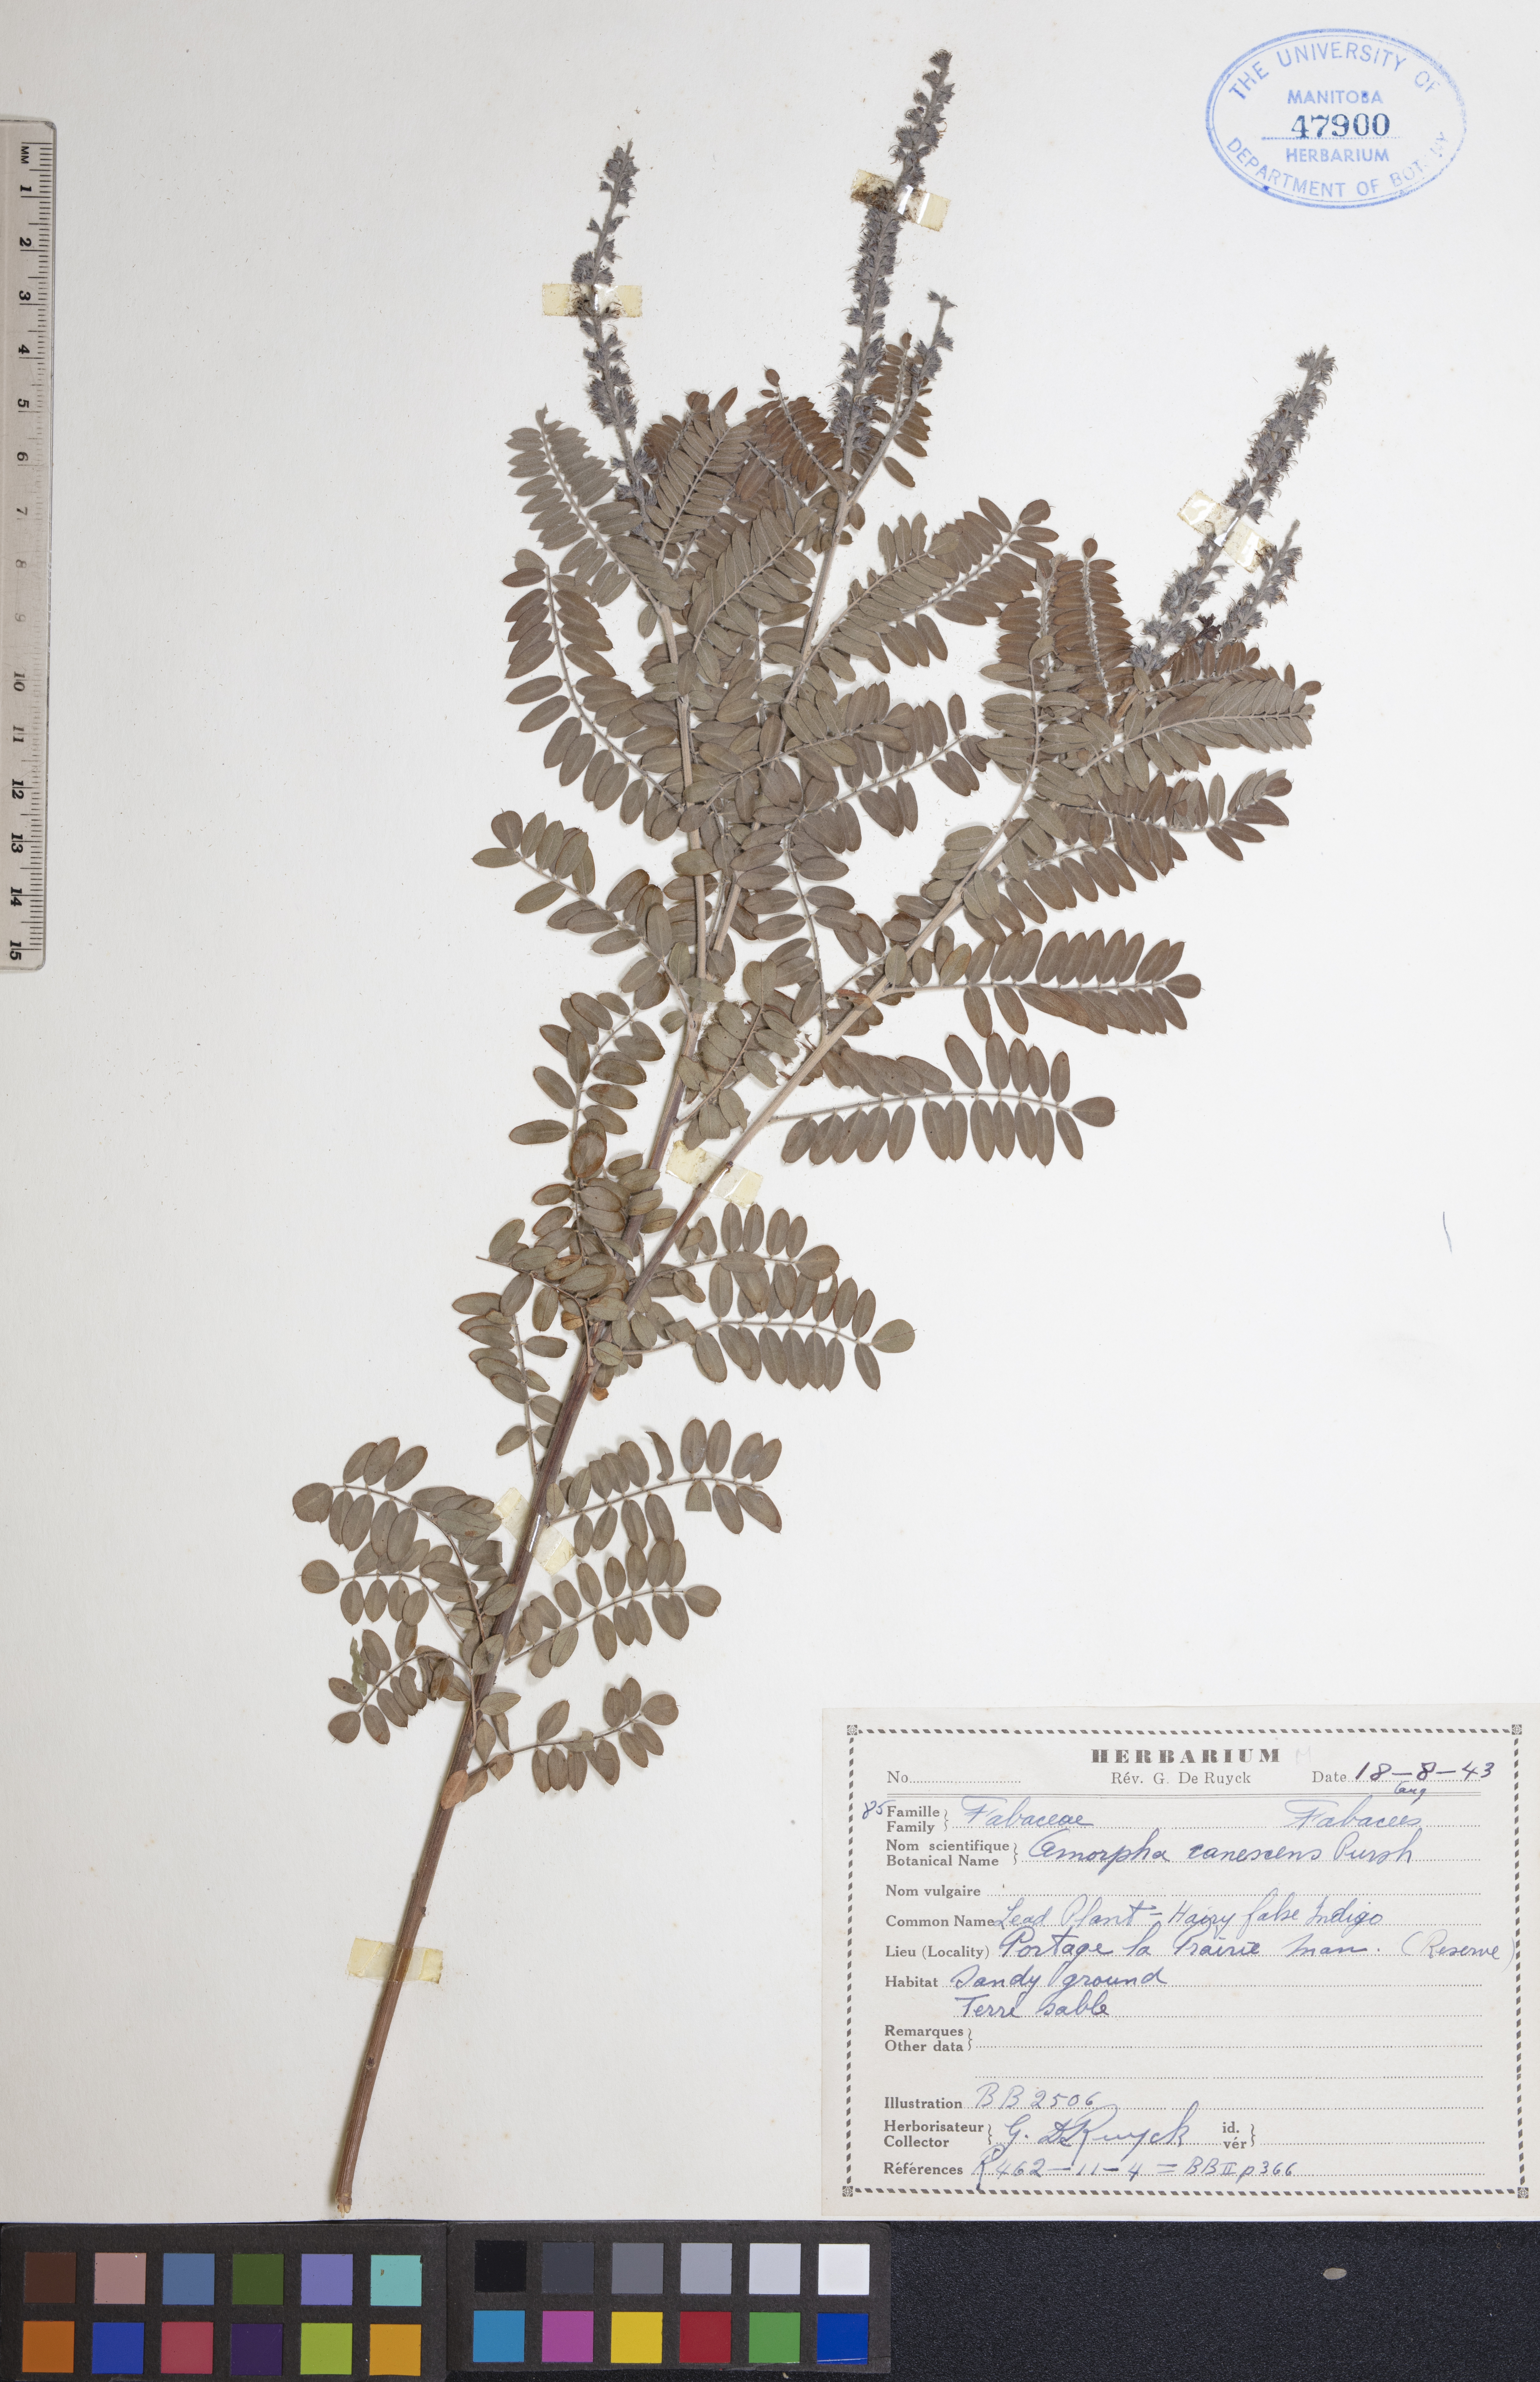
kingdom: Plantae
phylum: Tracheophyta
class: Magnoliopsida
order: Fabales
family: Fabaceae
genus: Amorpha
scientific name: Amorpha canescens
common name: Leadplant
